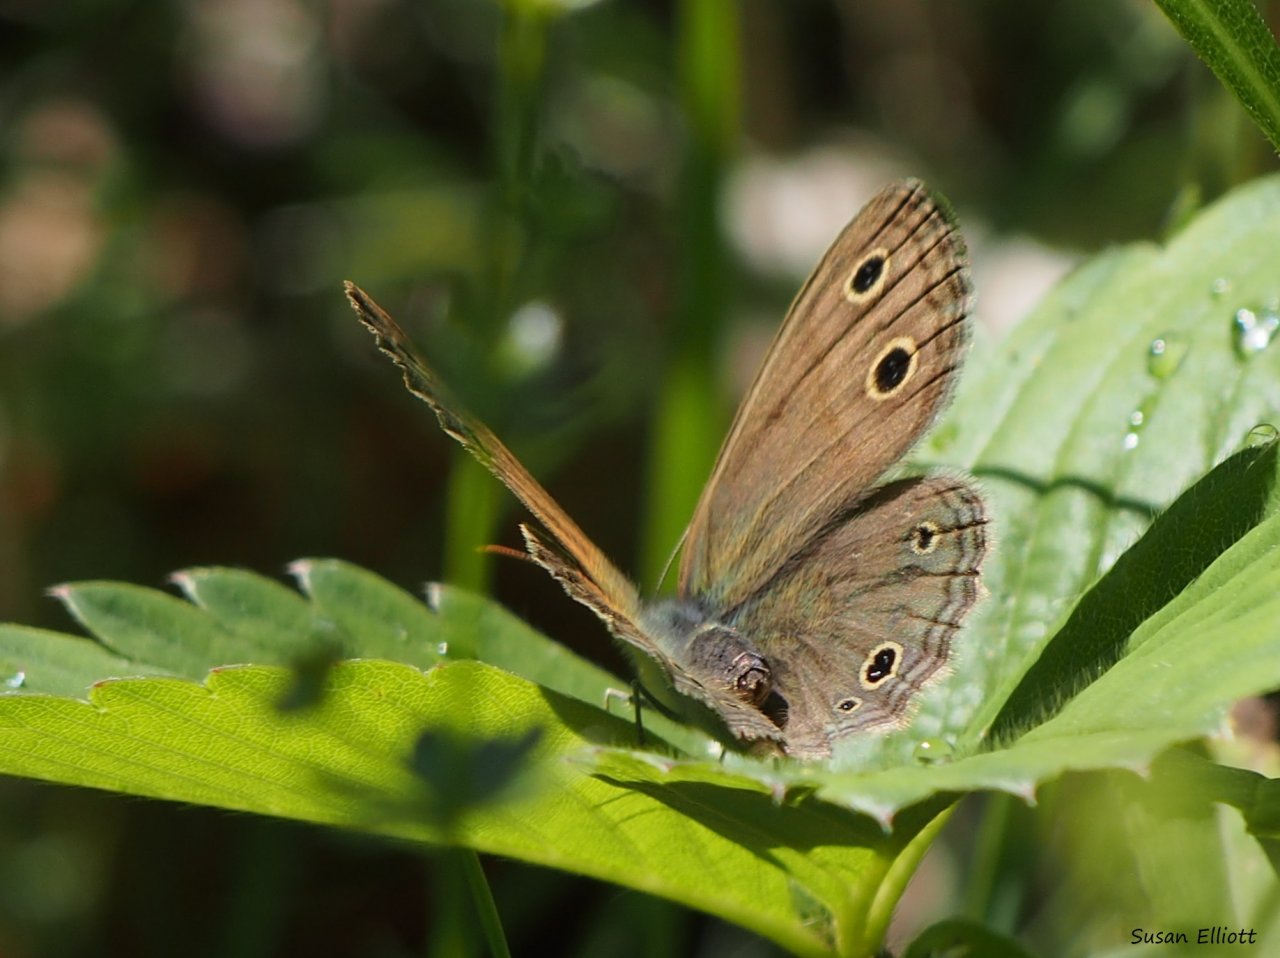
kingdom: Animalia
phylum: Arthropoda
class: Insecta
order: Lepidoptera
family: Nymphalidae
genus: Euptychia
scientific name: Euptychia cymela
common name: Little Wood Satyr
